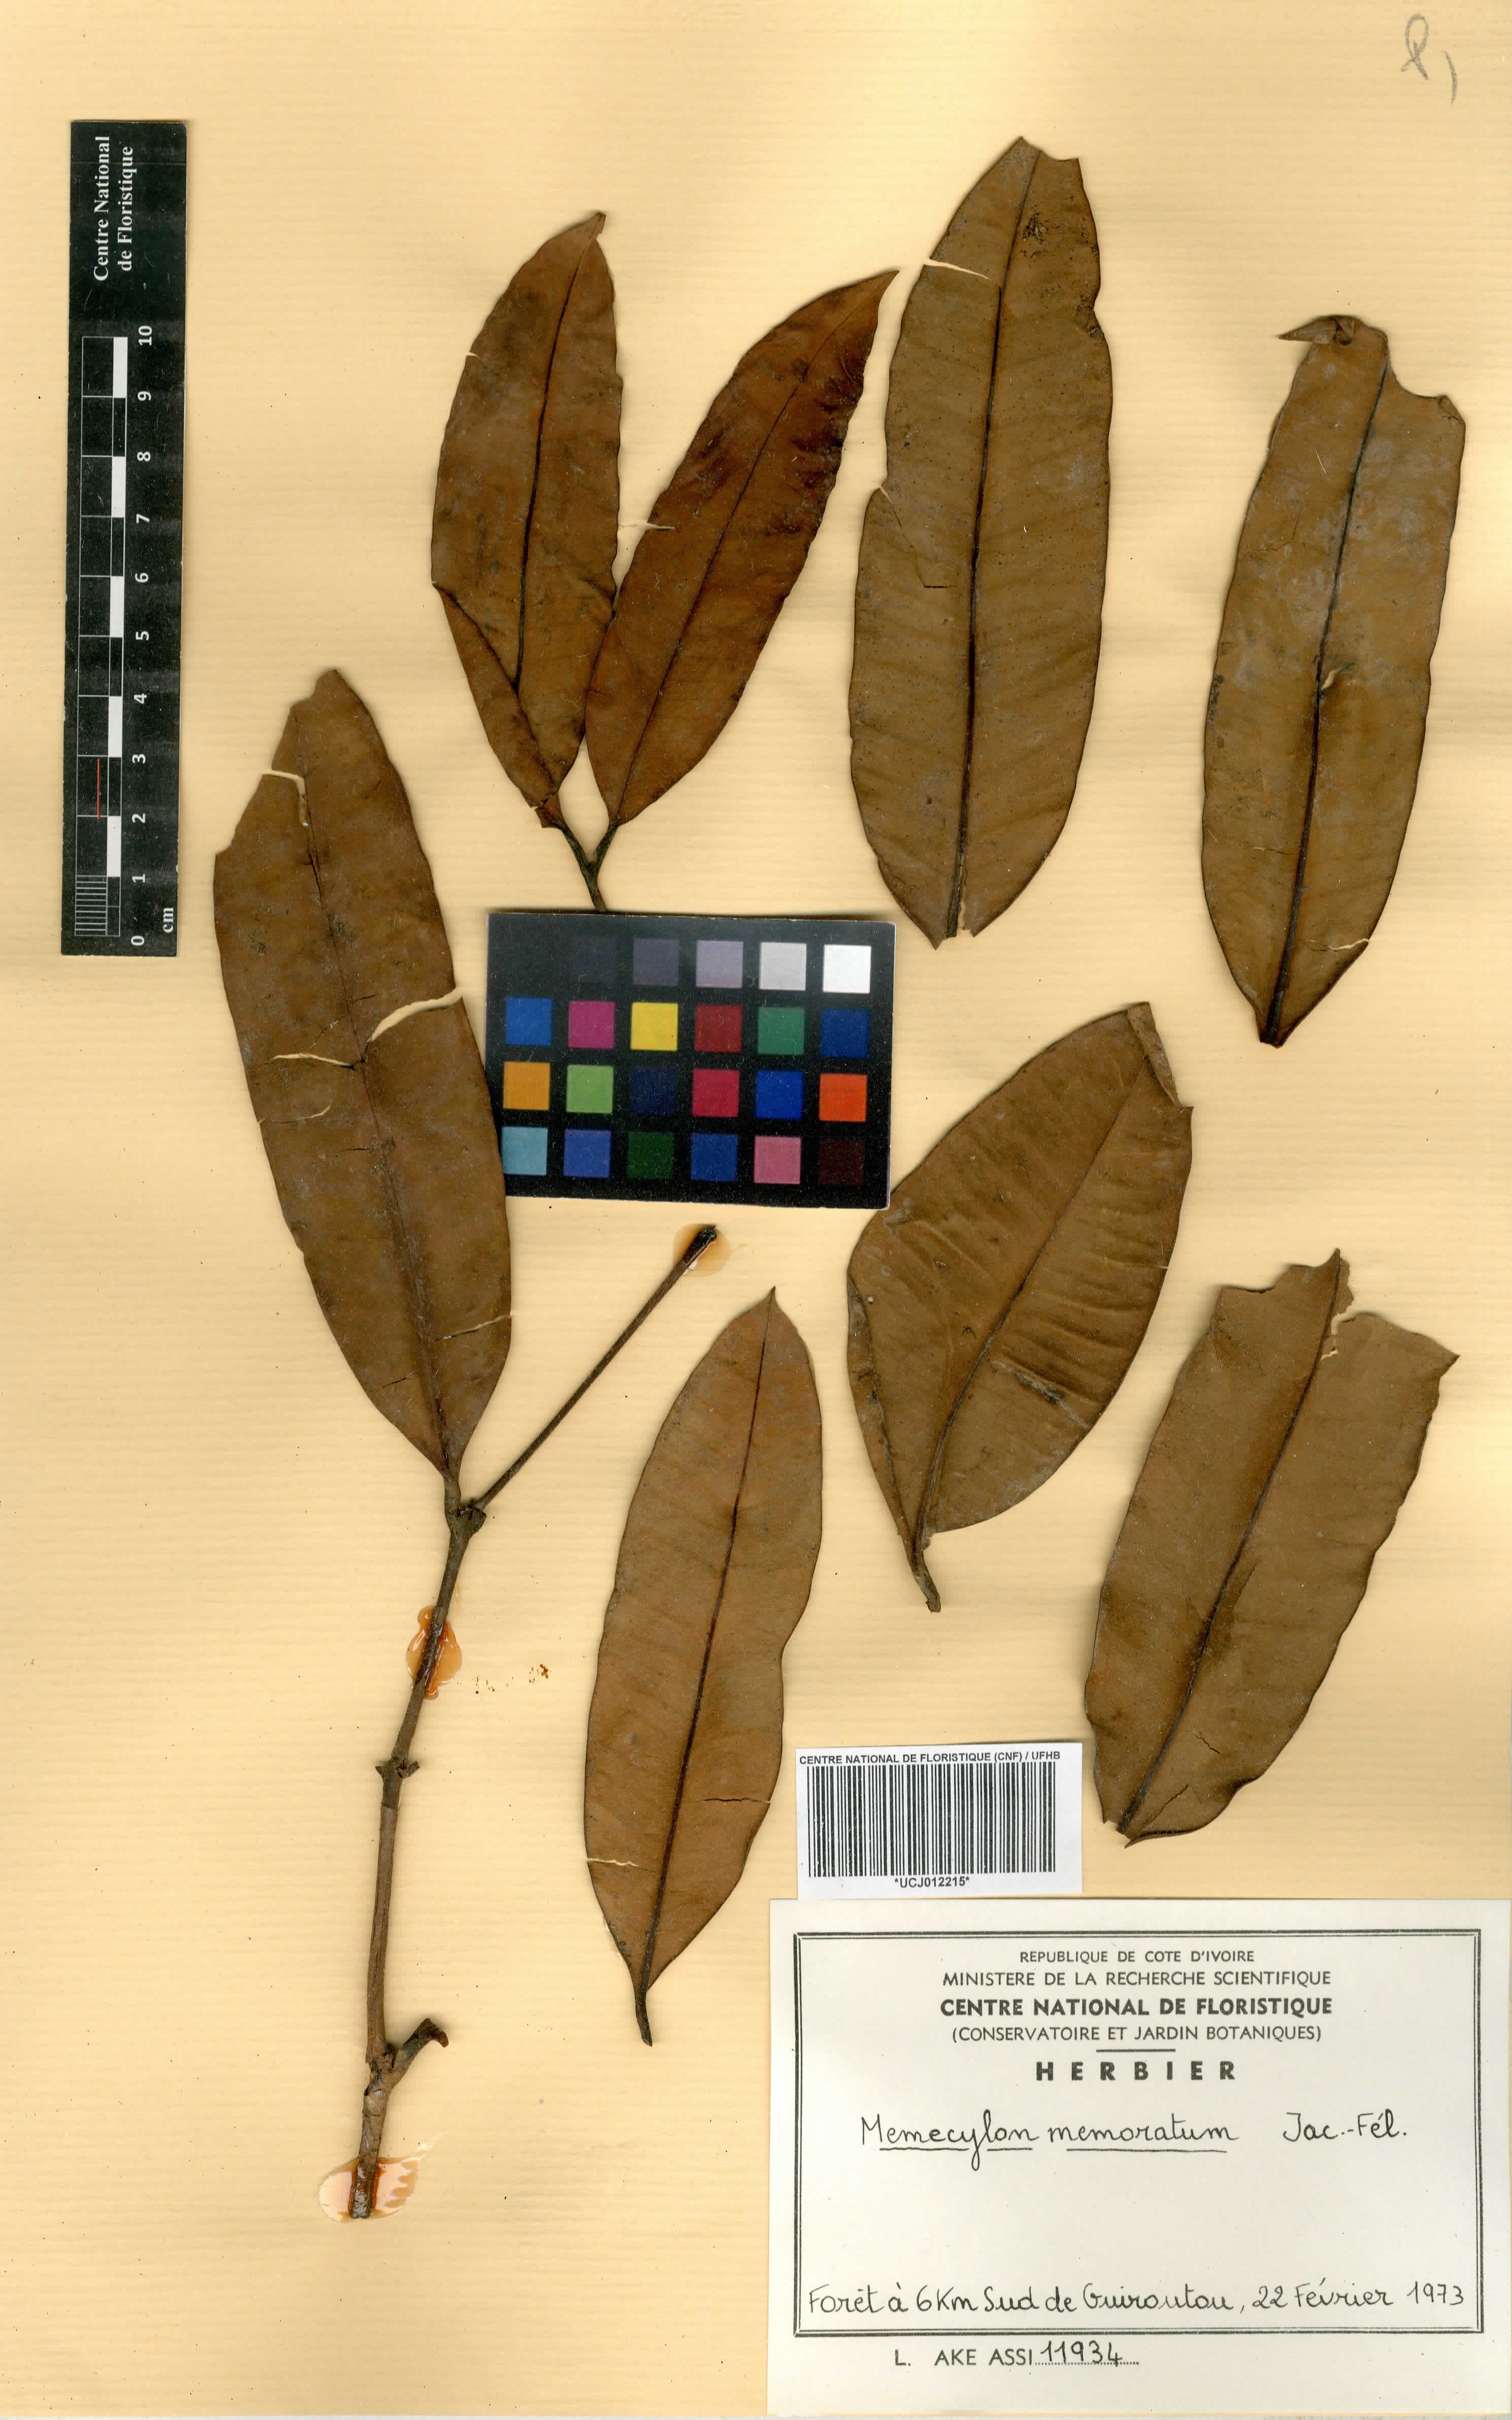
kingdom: Plantae
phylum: Tracheophyta
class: Magnoliopsida
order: Myrtales
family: Melastomataceae
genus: Memecylon
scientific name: Memecylon memoratum
